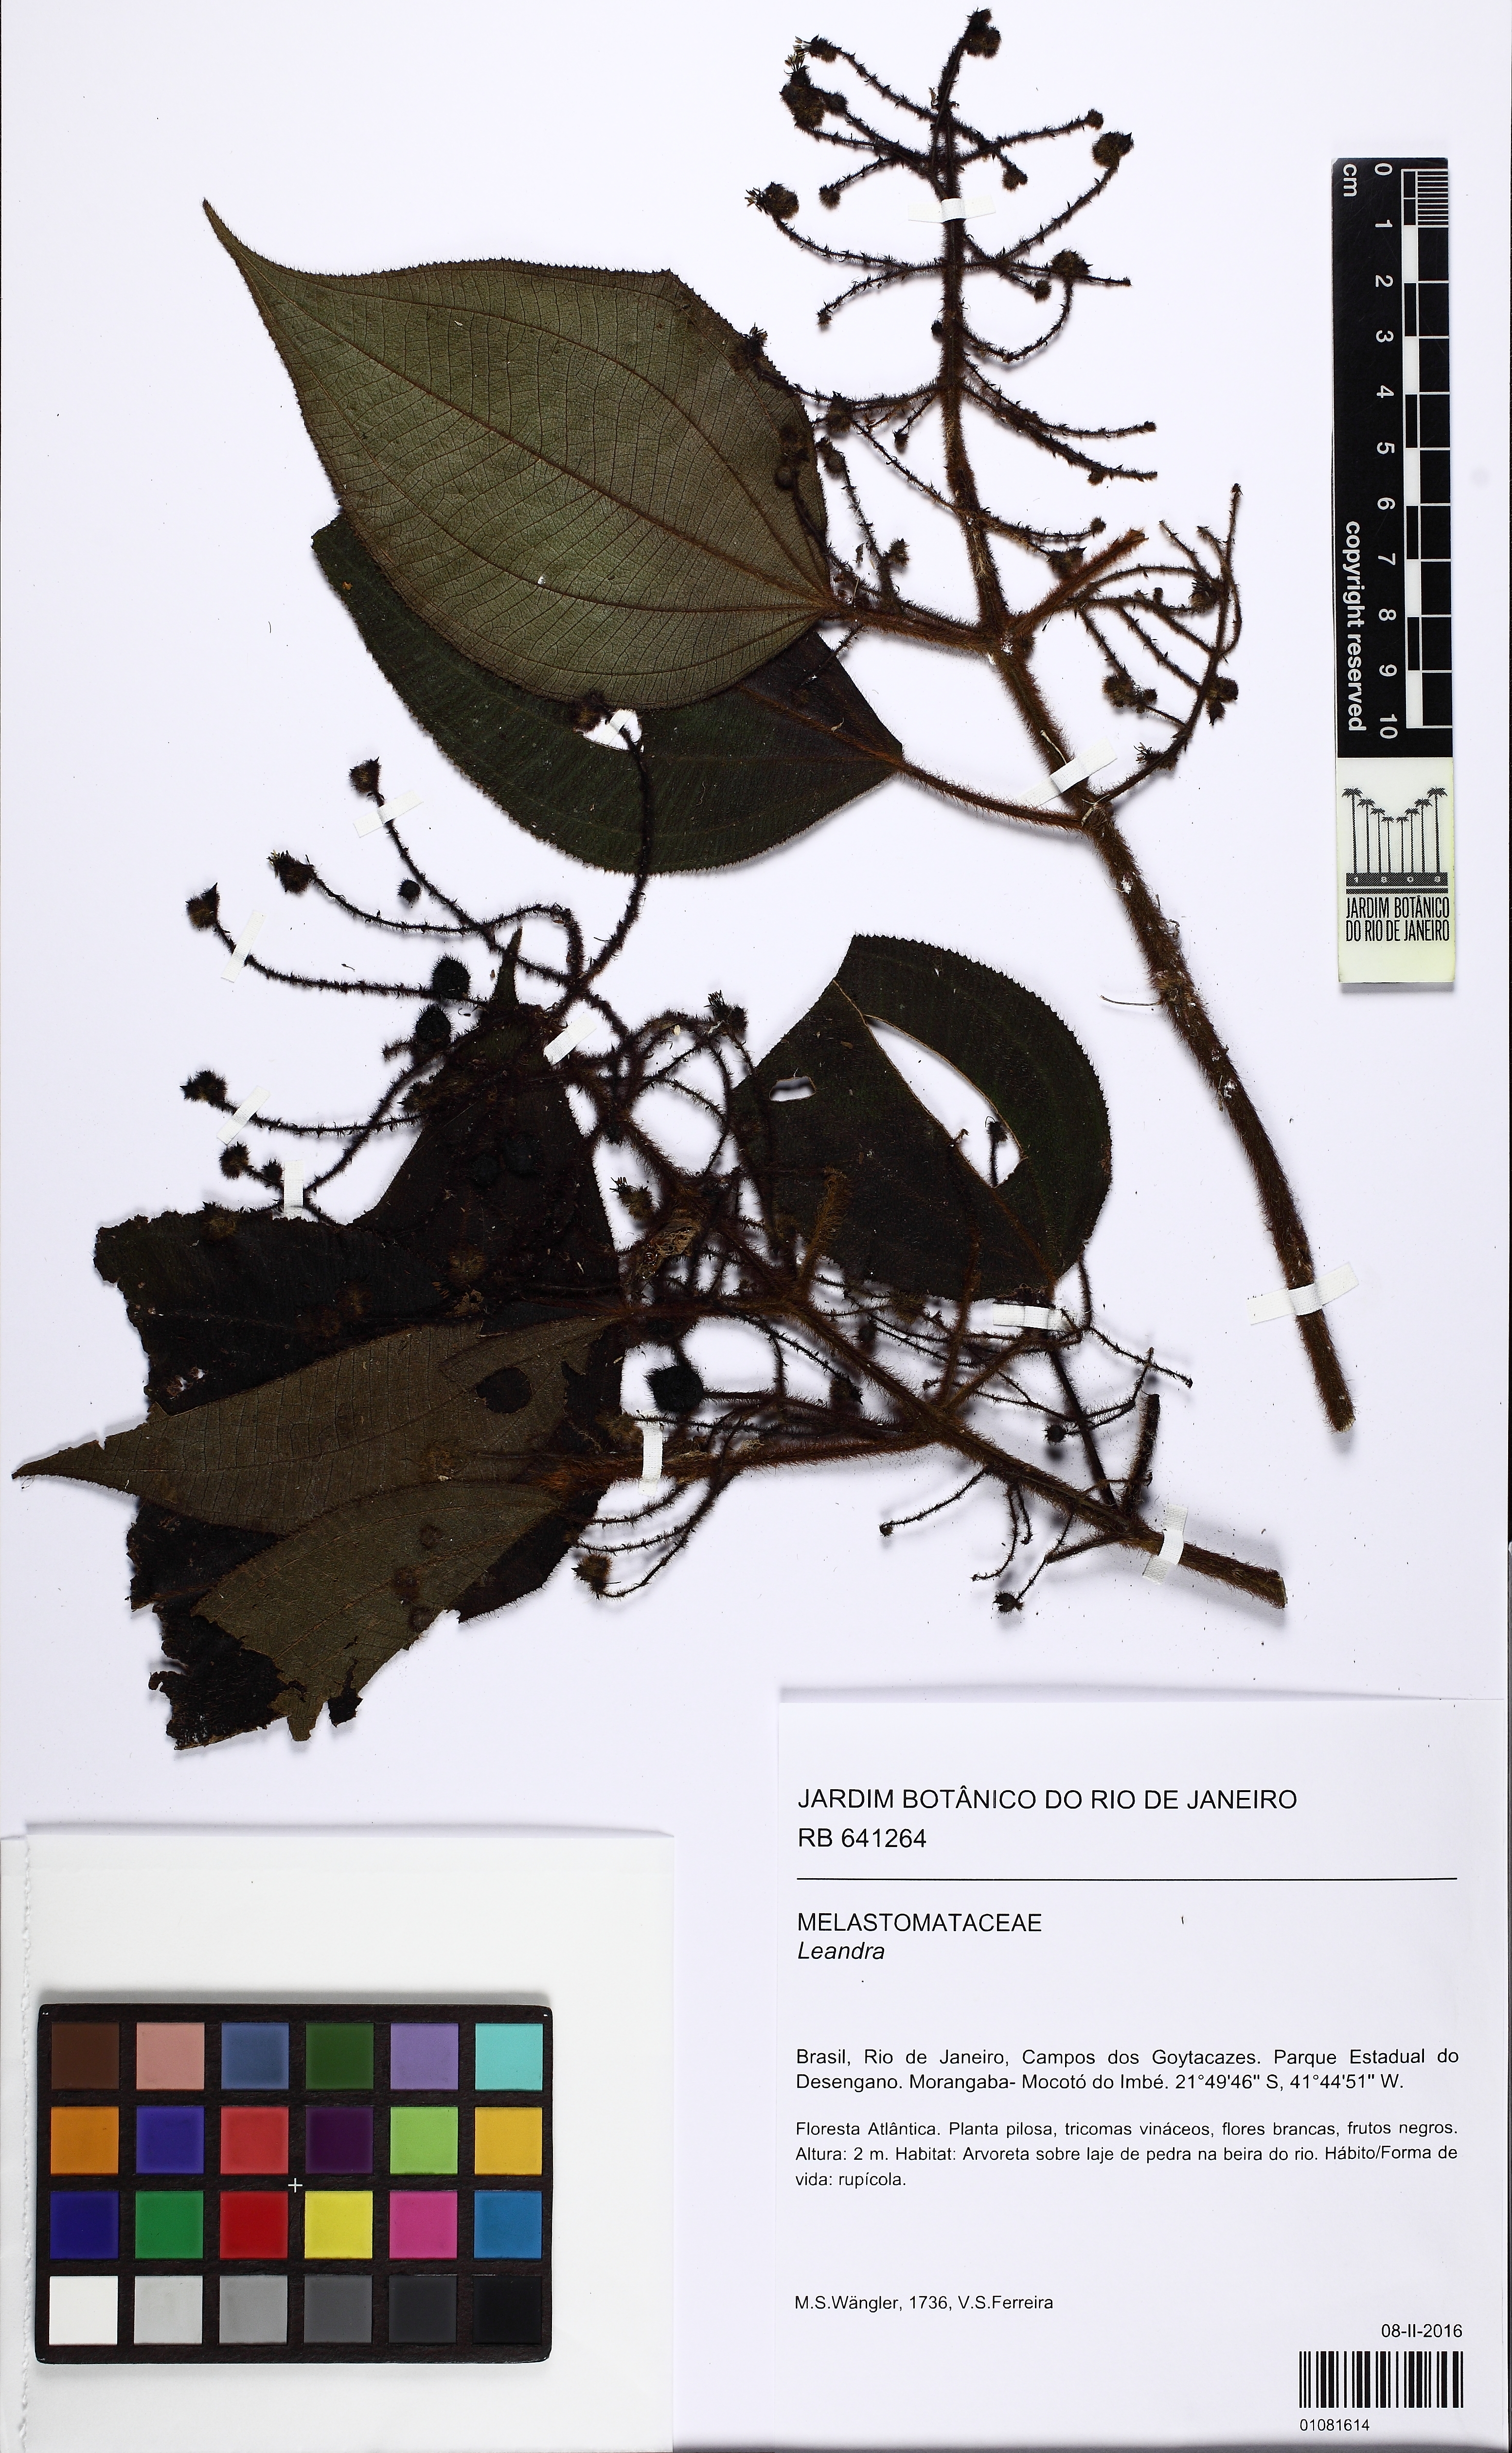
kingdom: Plantae
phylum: Tracheophyta
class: Magnoliopsida
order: Myrtales
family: Melastomataceae
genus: Miconia
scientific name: Miconia
